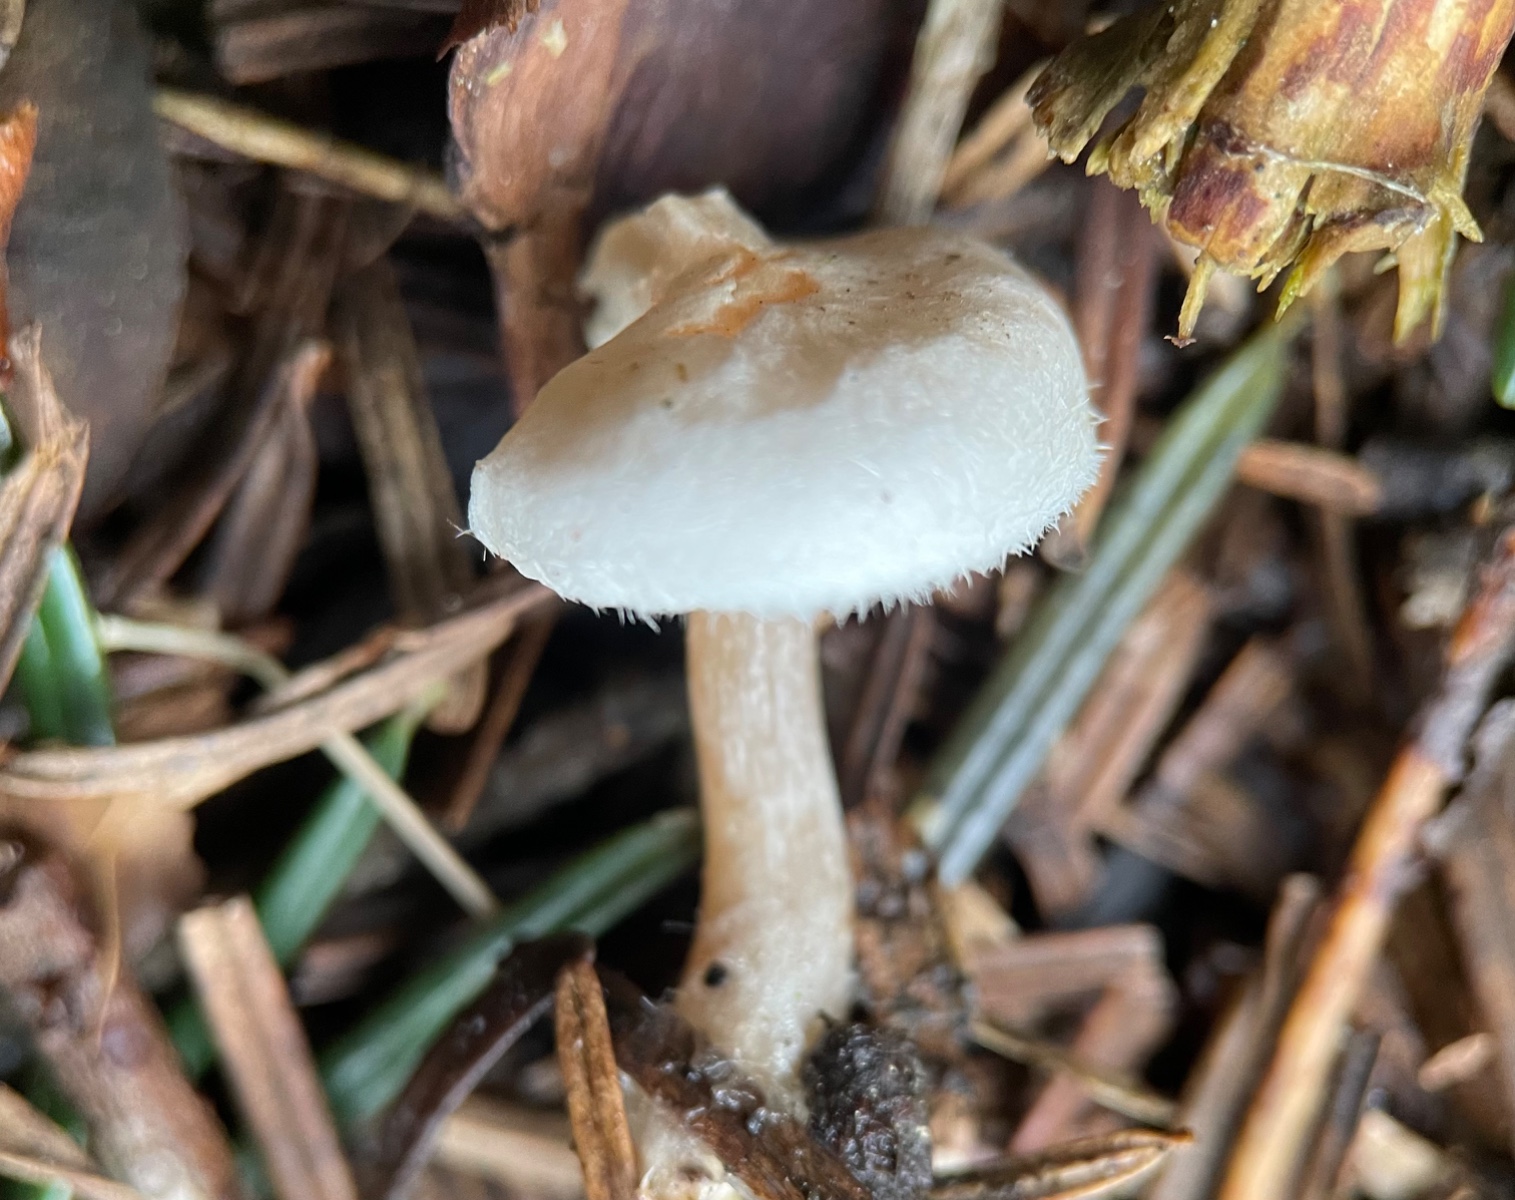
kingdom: Fungi
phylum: Basidiomycota
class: Agaricomycetes
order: Agaricales
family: Tricholomataceae
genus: Ripartites
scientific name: Ripartites tricholoma
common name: almindelig skæghat
